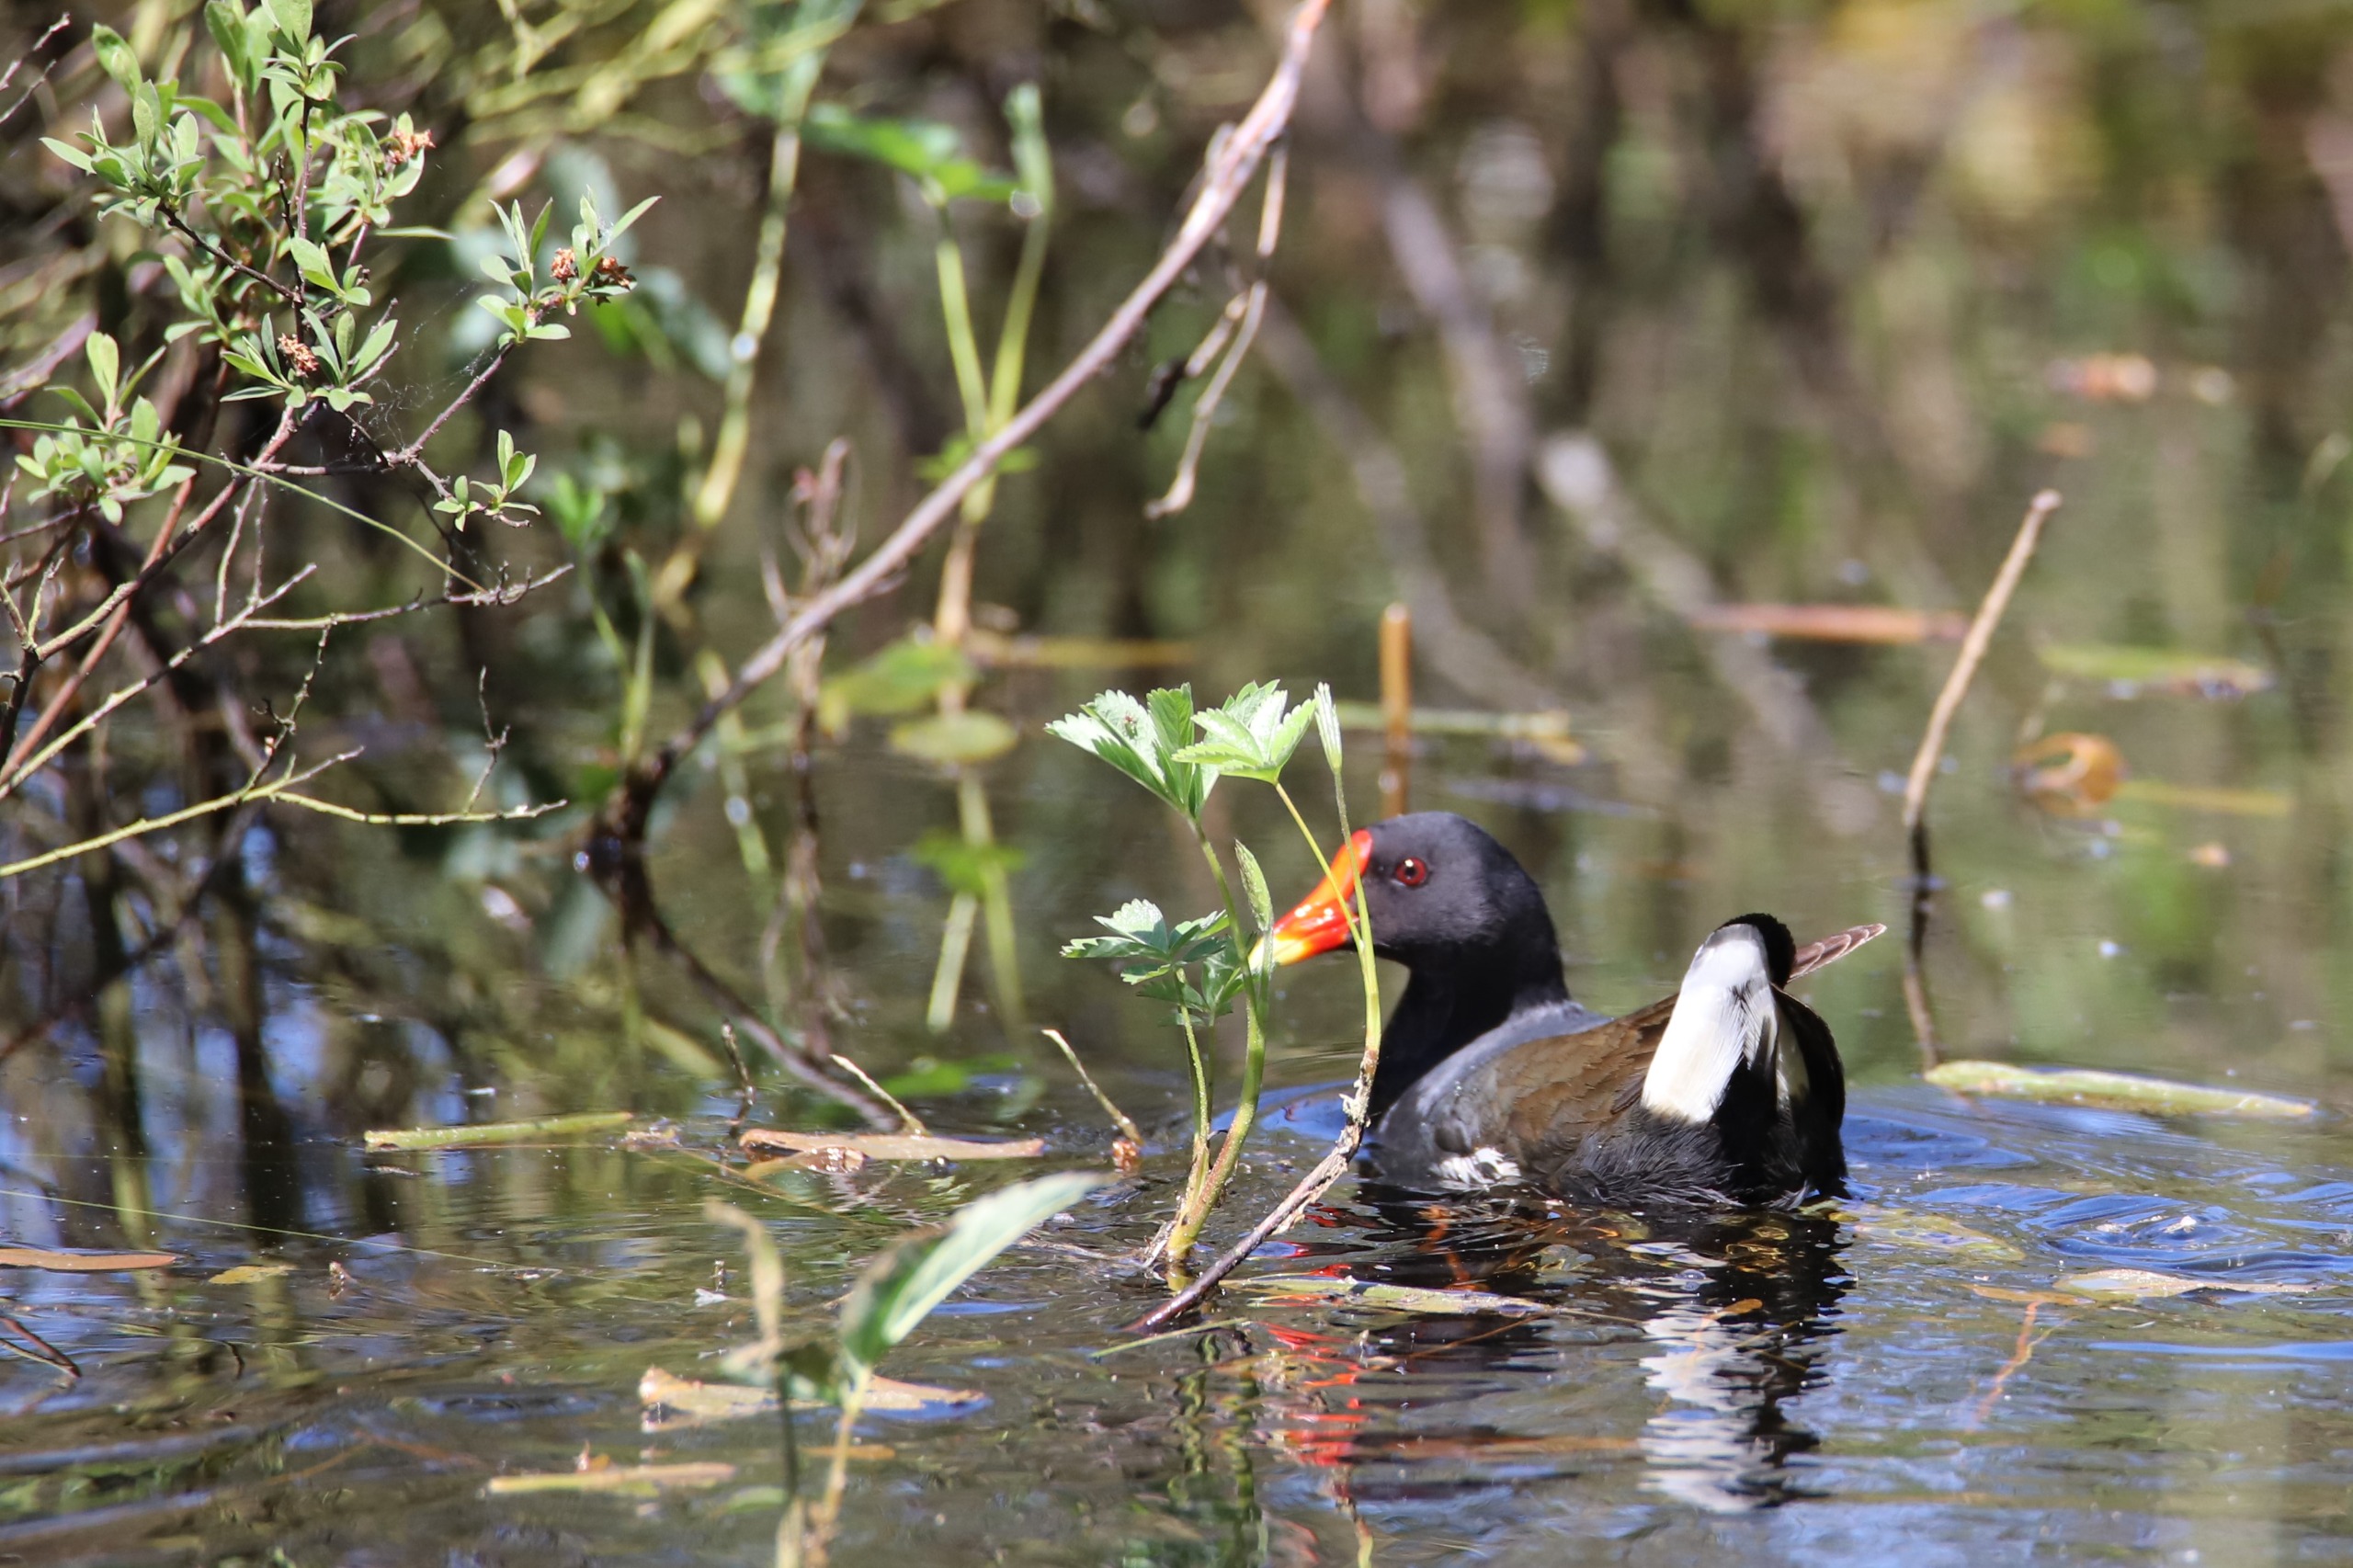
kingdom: Animalia
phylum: Chordata
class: Aves
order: Gruiformes
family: Rallidae
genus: Gallinula
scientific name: Gallinula chloropus
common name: Grønbenet rørhøne
